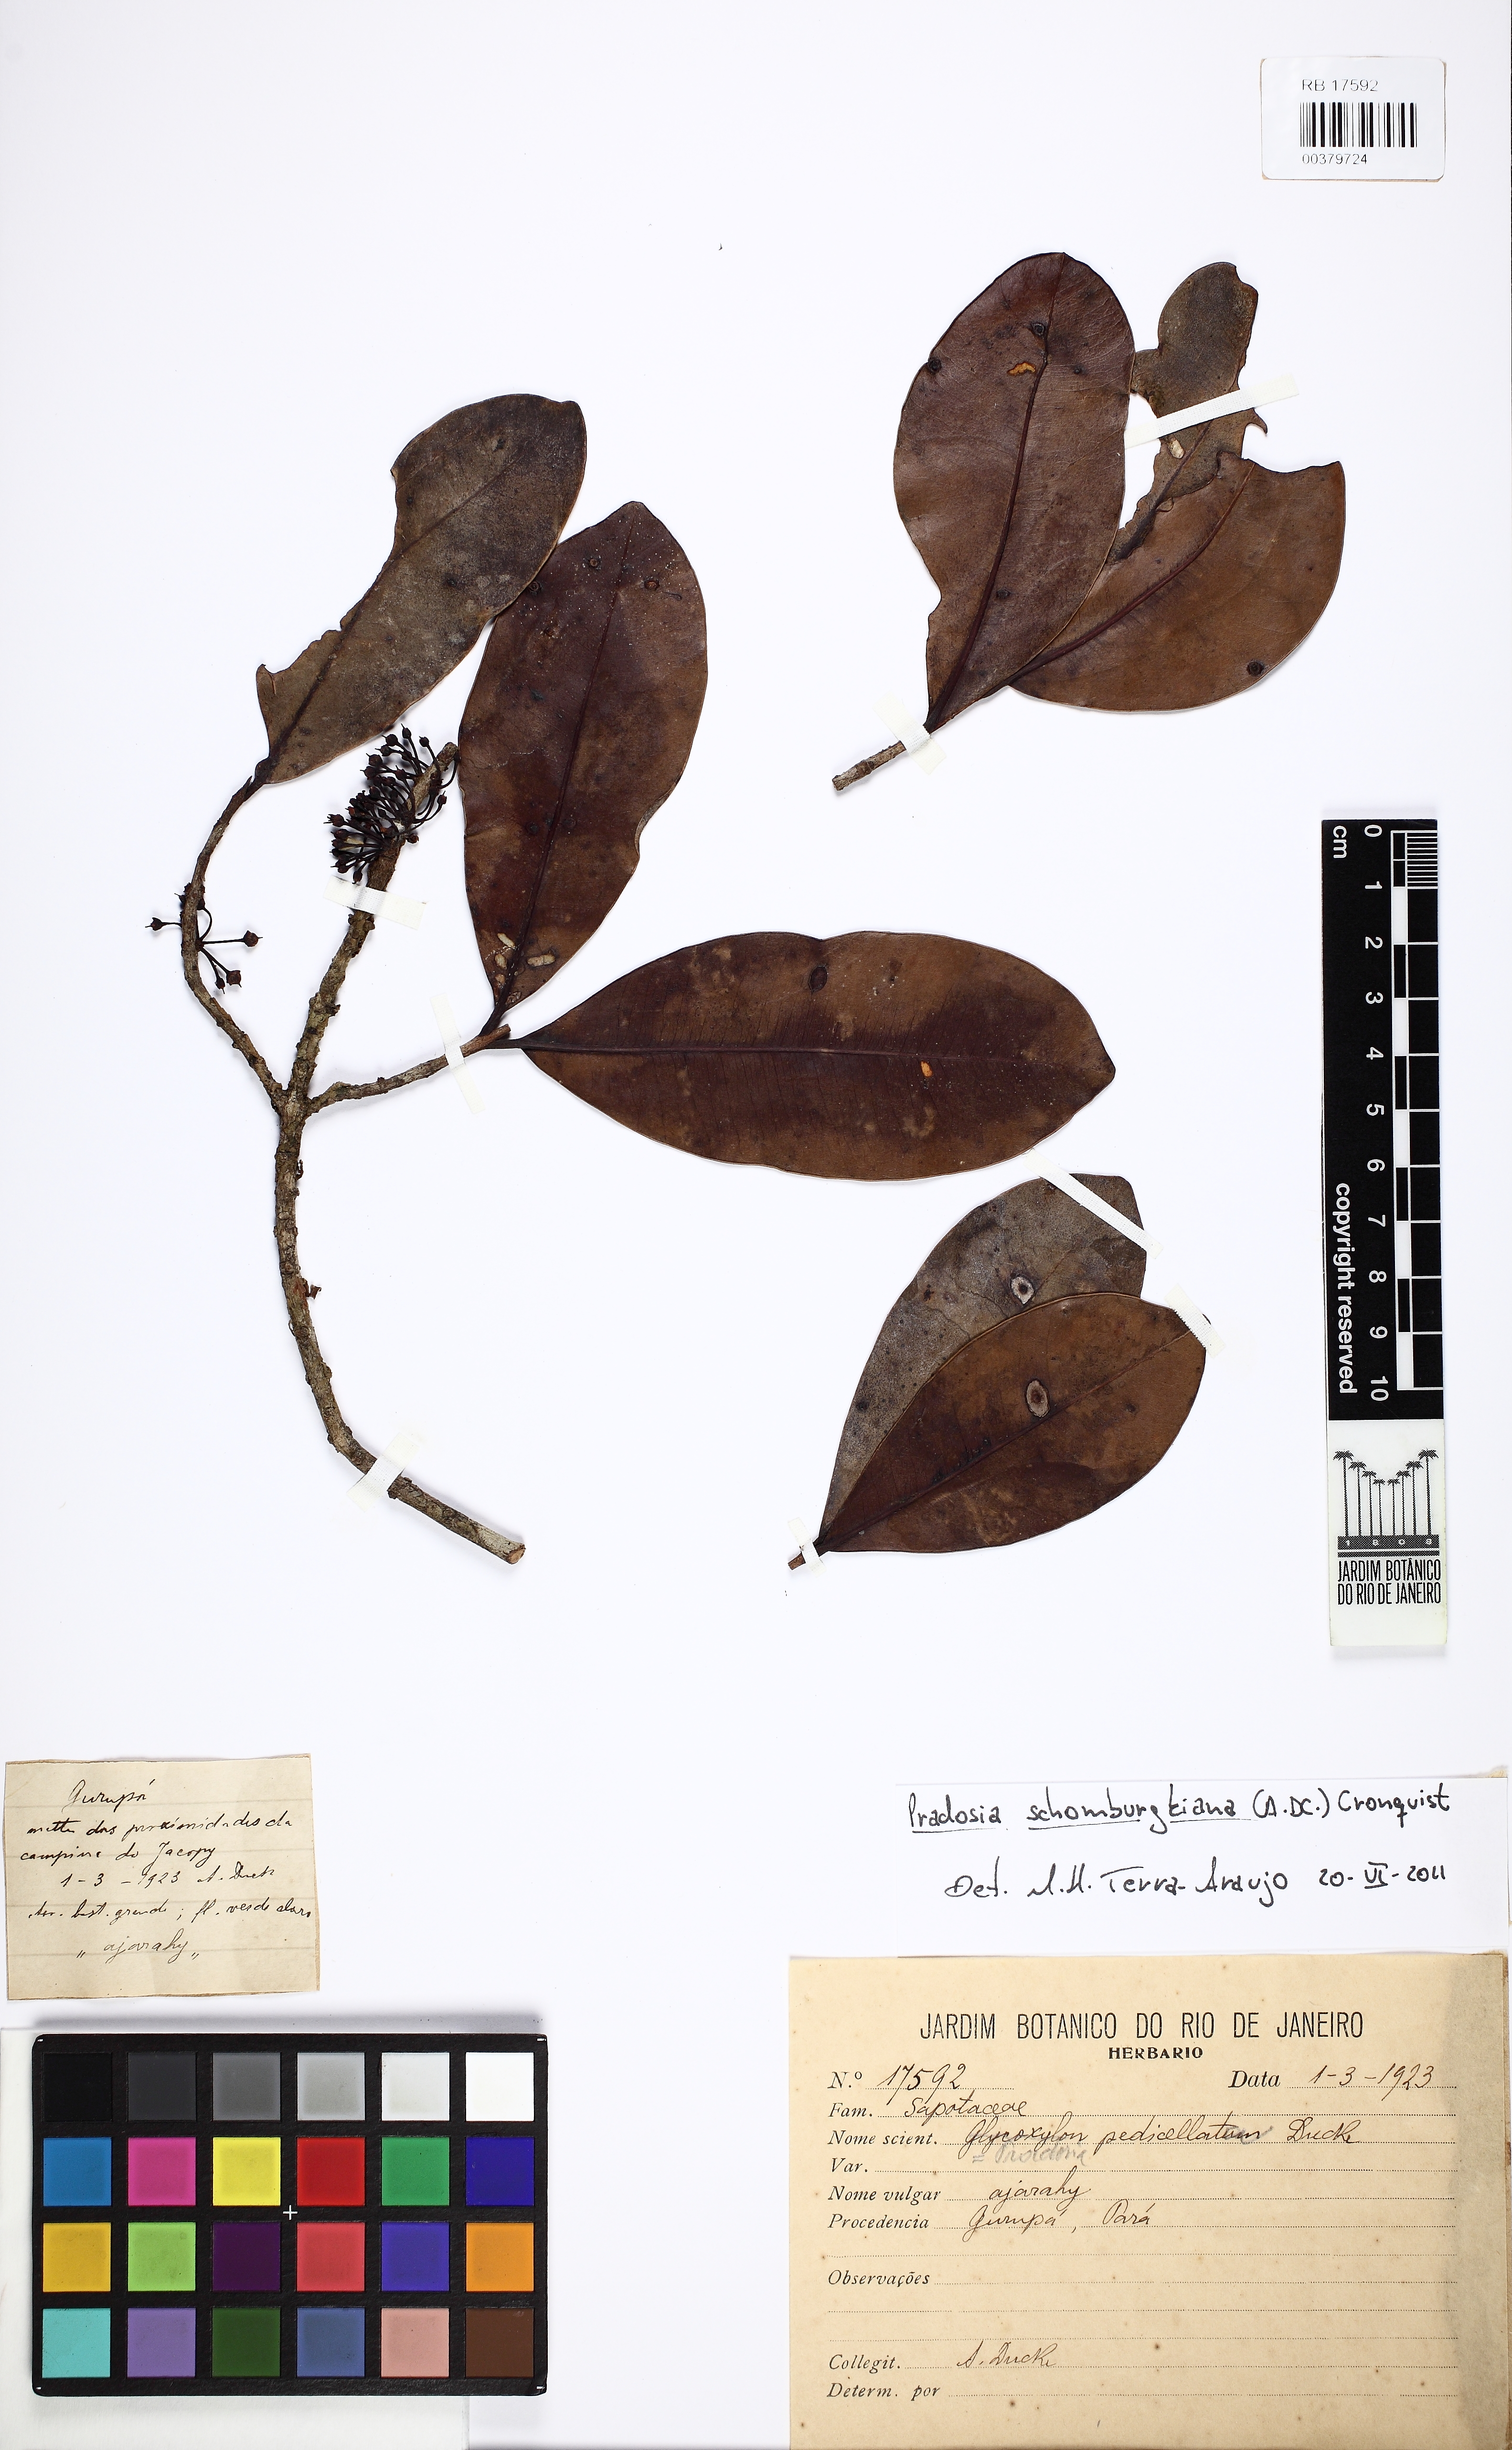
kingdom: Plantae
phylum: Tracheophyta
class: Magnoliopsida
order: Ericales
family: Sapotaceae
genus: Pradosia
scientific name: Pradosia schomburgkiana
